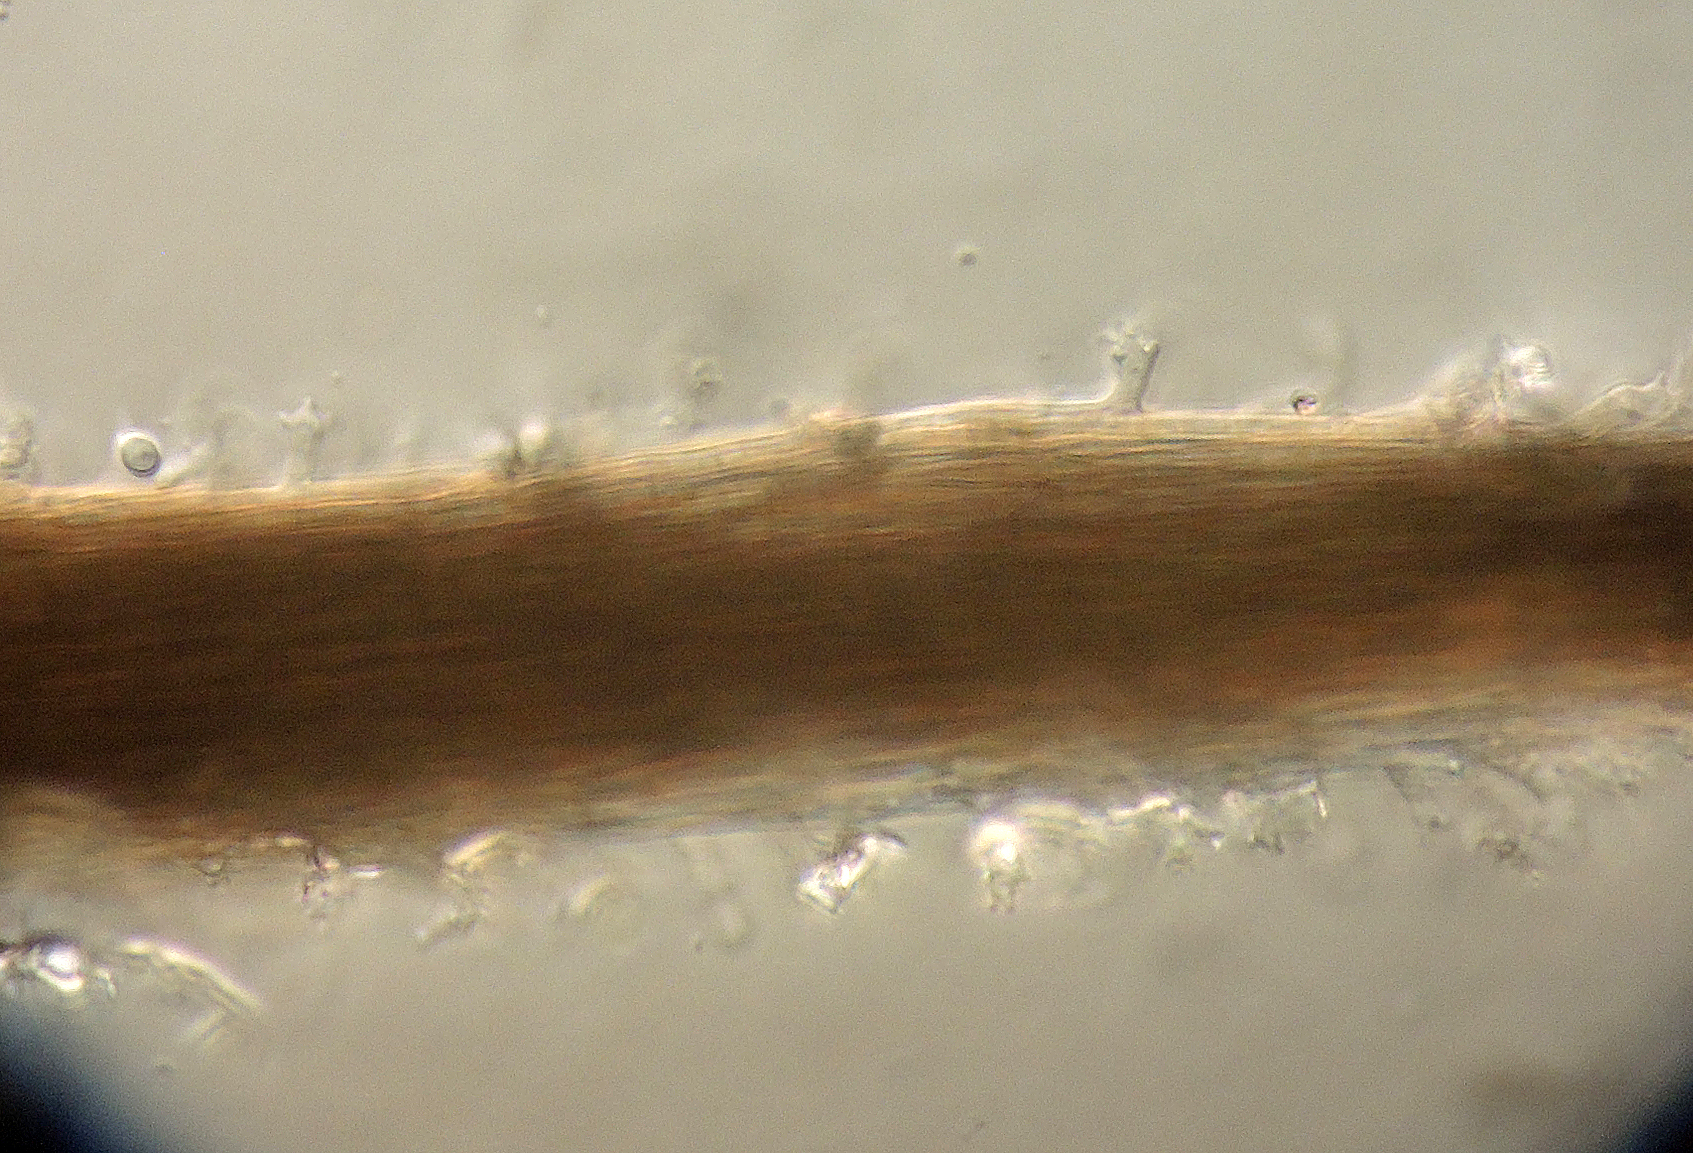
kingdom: Fungi
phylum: Ascomycota
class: Sordariomycetes
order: Xylariales
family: Diatrypaceae
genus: Phaeoisaria
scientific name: Phaeoisaria clematidis
